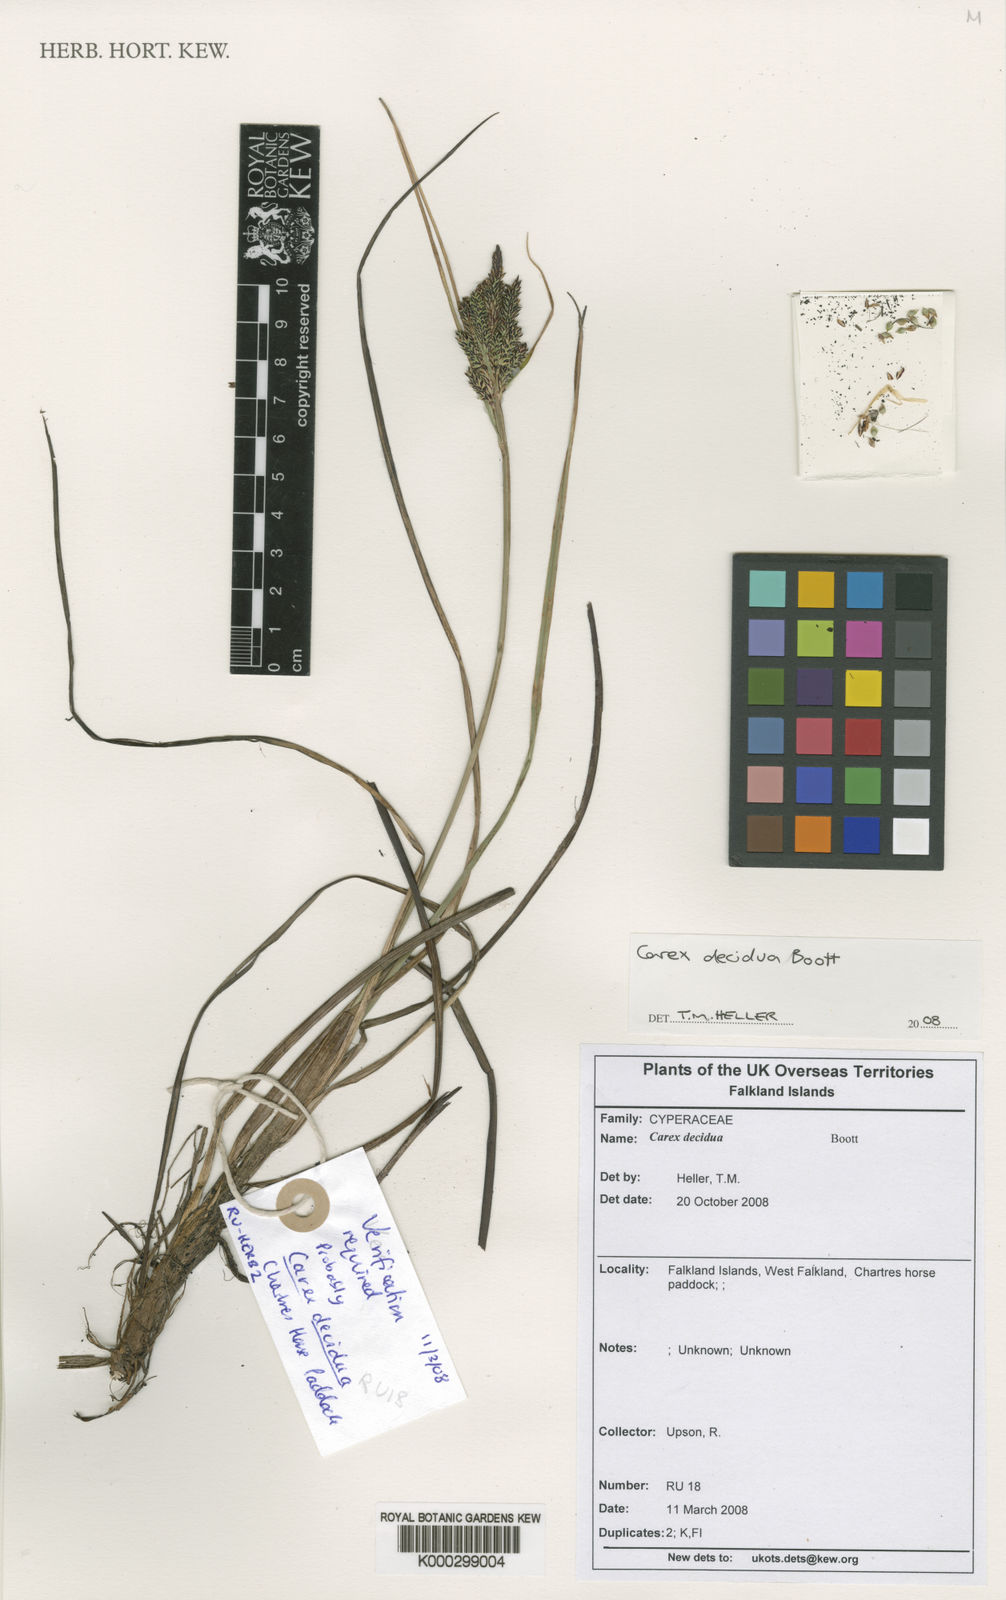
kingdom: Plantae
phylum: Tracheophyta
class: Liliopsida
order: Poales
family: Cyperaceae
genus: Carex
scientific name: Carex decidua
